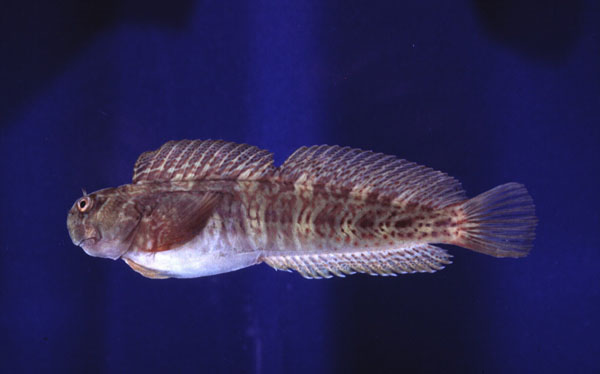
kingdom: Animalia
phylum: Chordata
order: Perciformes
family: Blenniidae
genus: Istiblennius
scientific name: Istiblennius edentulus
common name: Rippled rockskipper
